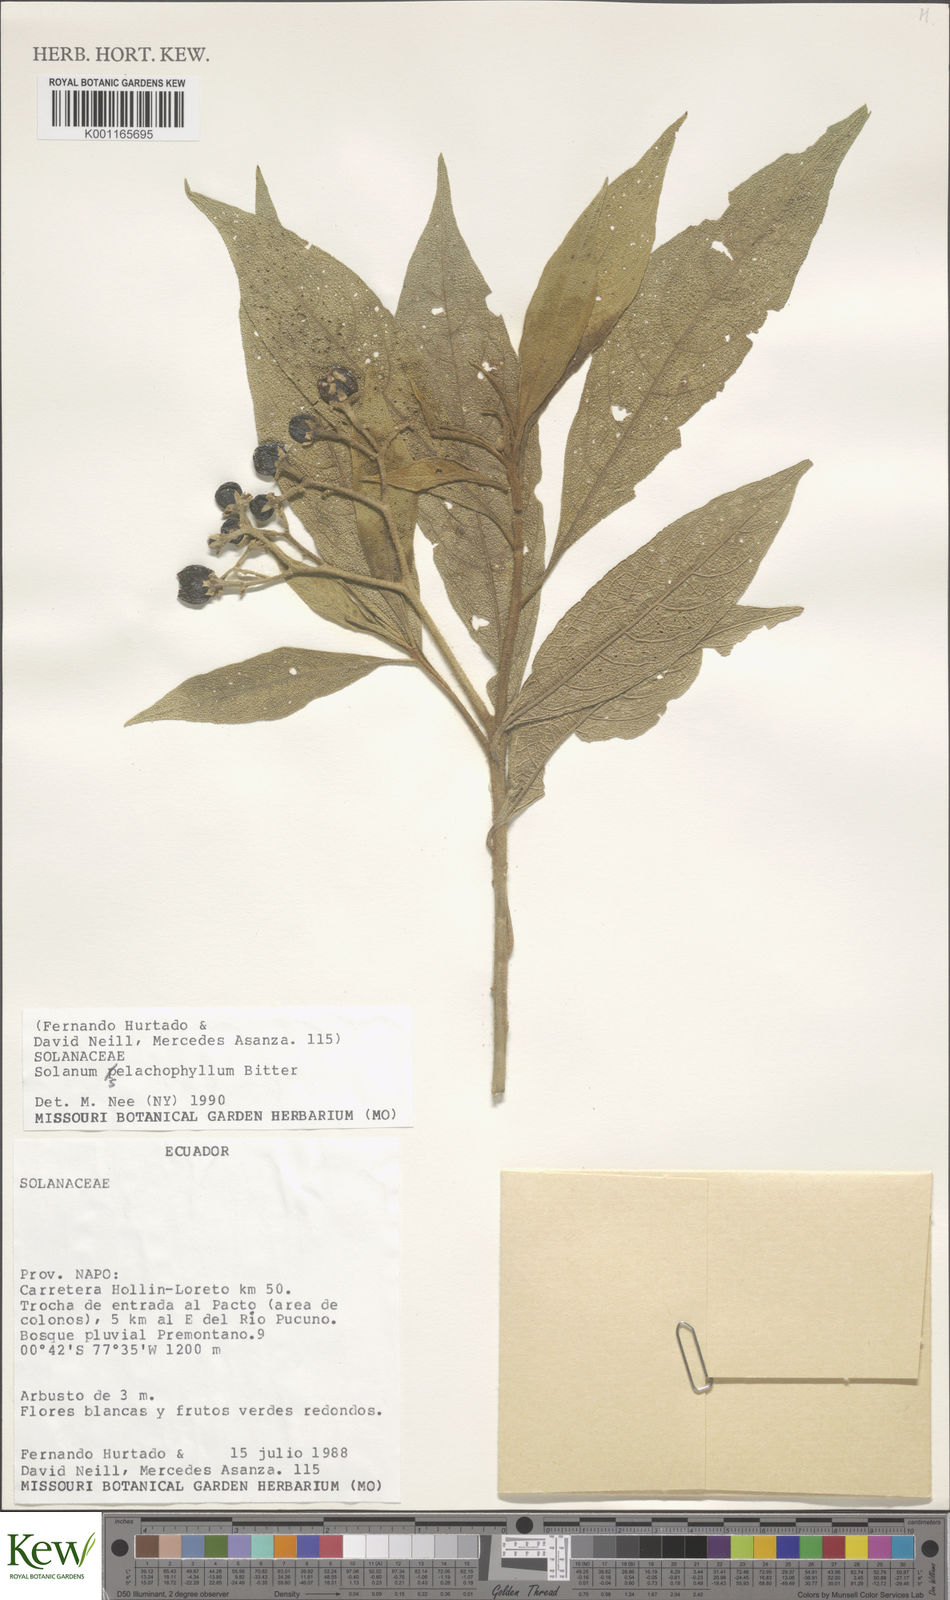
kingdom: Plantae
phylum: Tracheophyta
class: Magnoliopsida
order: Solanales
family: Solanaceae
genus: Solanum
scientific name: Solanum selachophyllum
